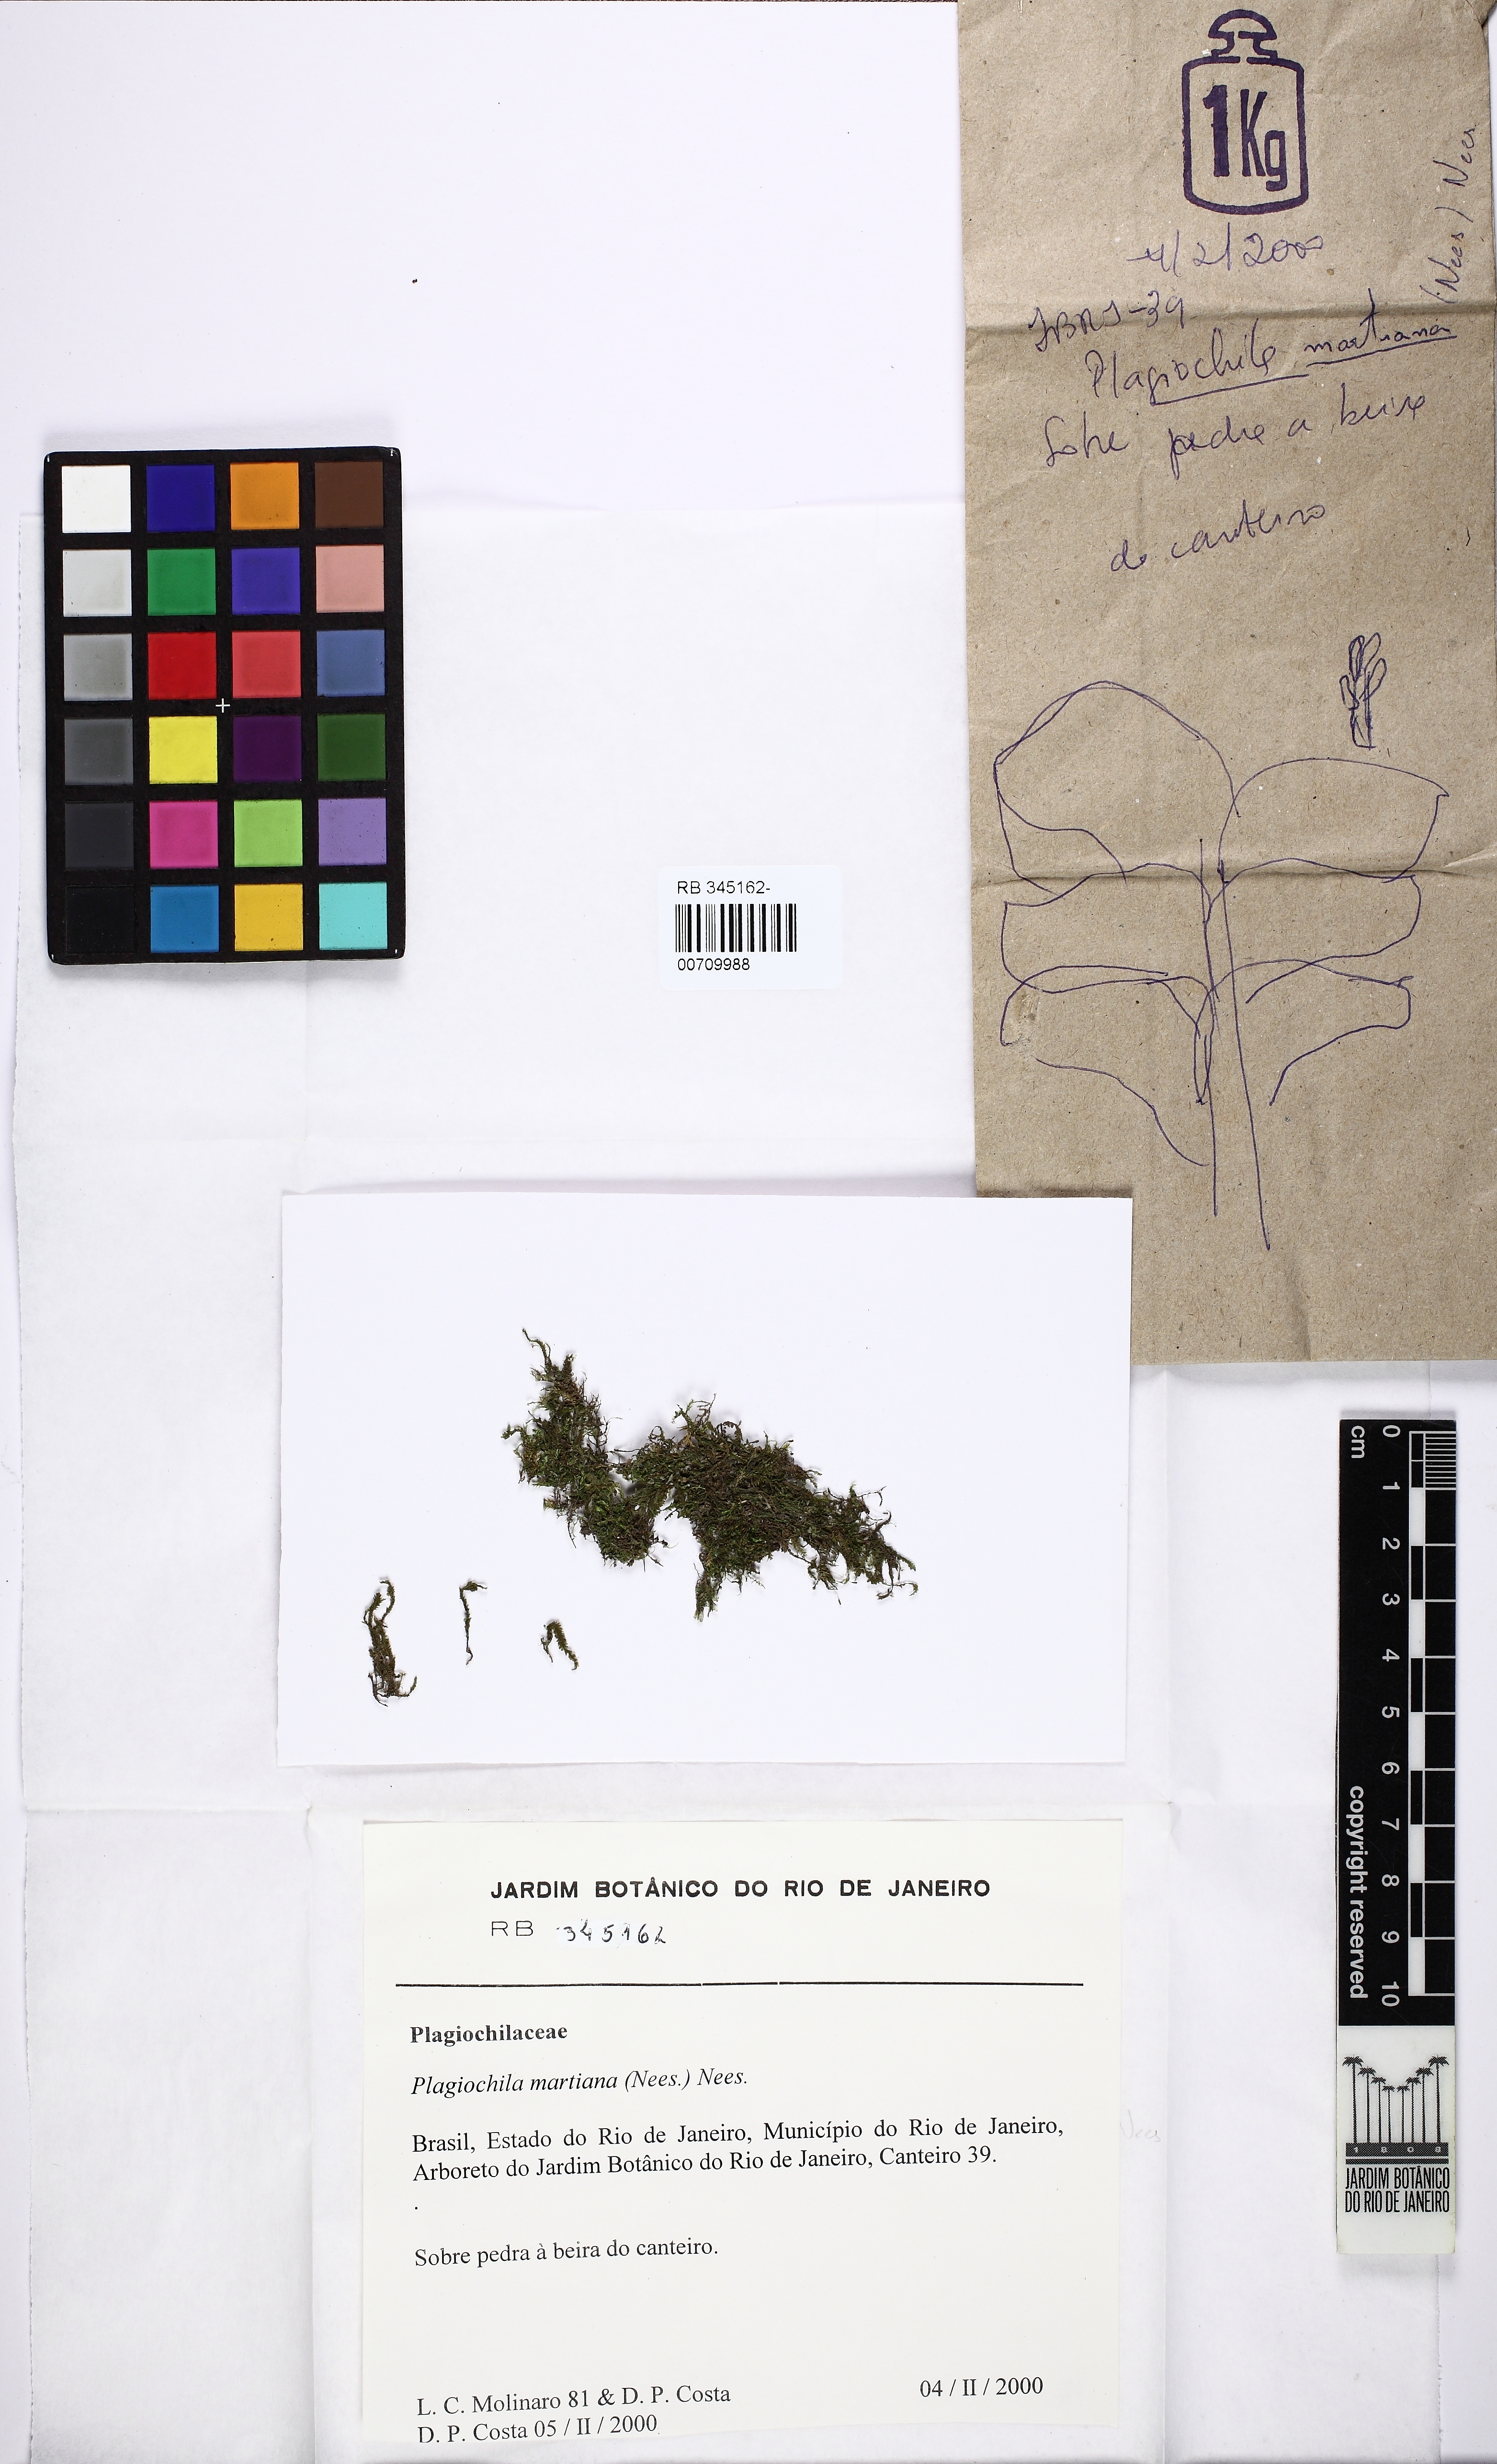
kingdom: Plantae
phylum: Marchantiophyta
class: Jungermanniopsida
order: Jungermanniales
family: Plagiochilaceae
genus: Plagiochila
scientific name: Plagiochila patula
